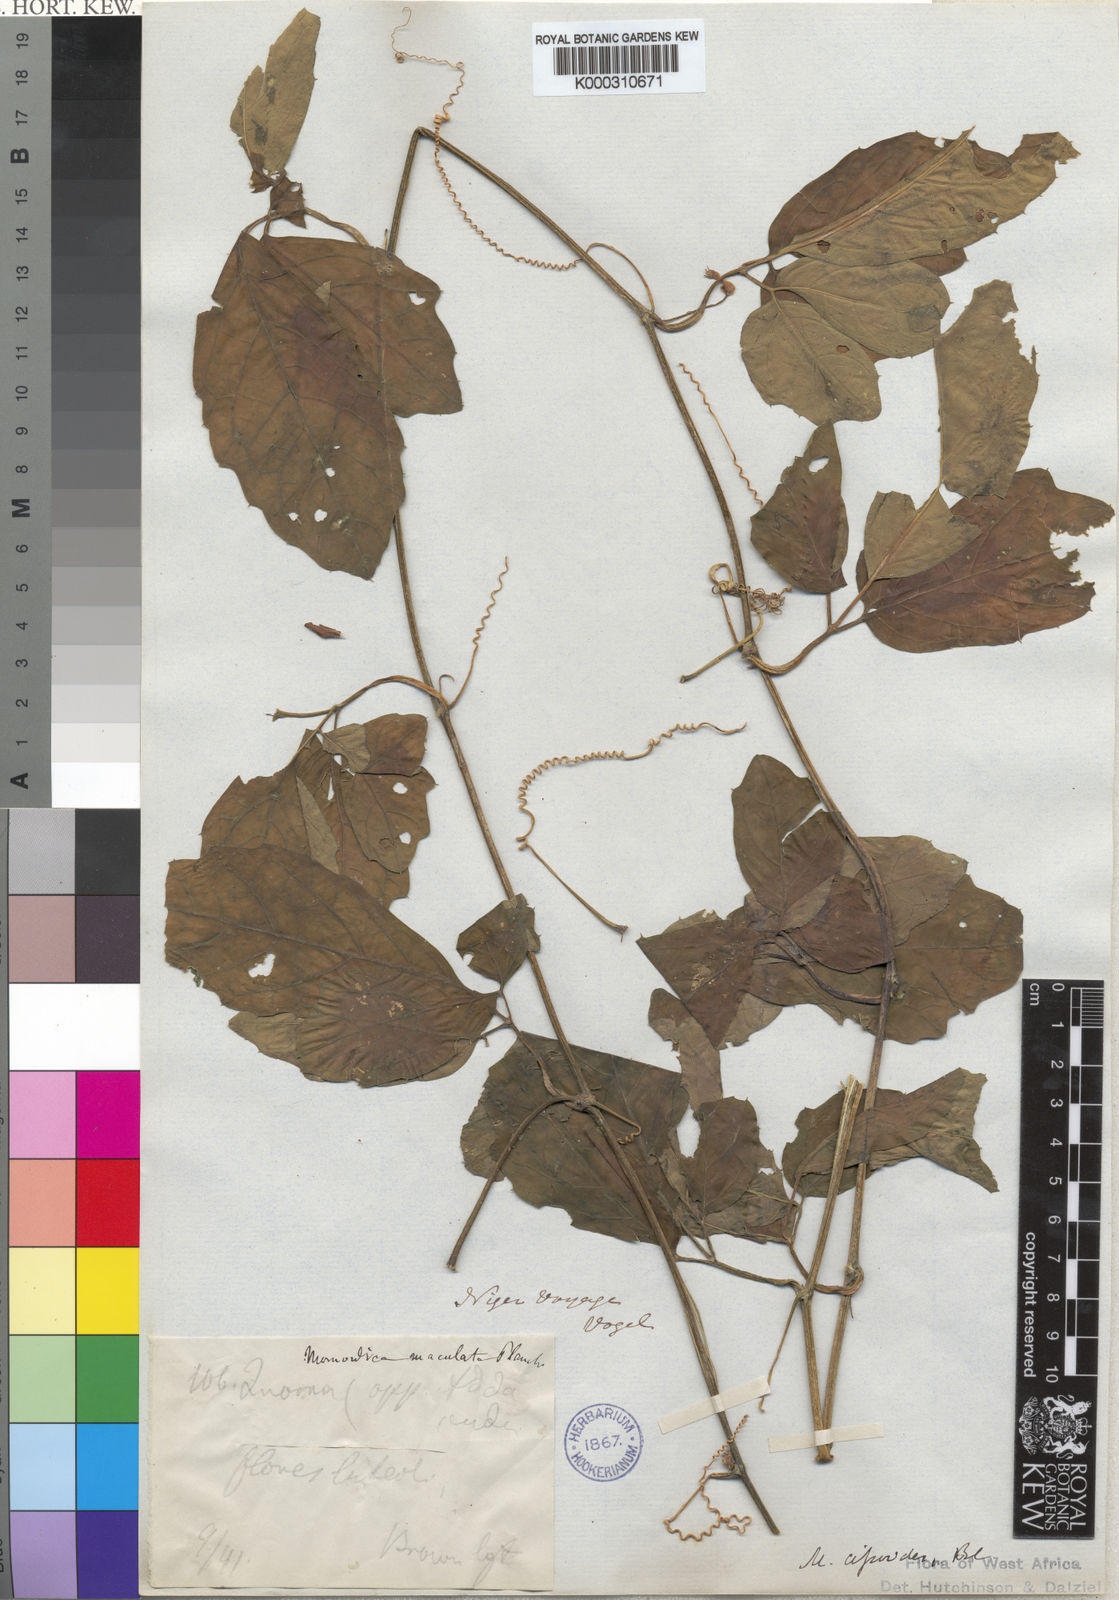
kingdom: Plantae
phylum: Tracheophyta
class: Magnoliopsida
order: Cucurbitales
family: Cucurbitaceae
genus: Momordica
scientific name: Momordica
